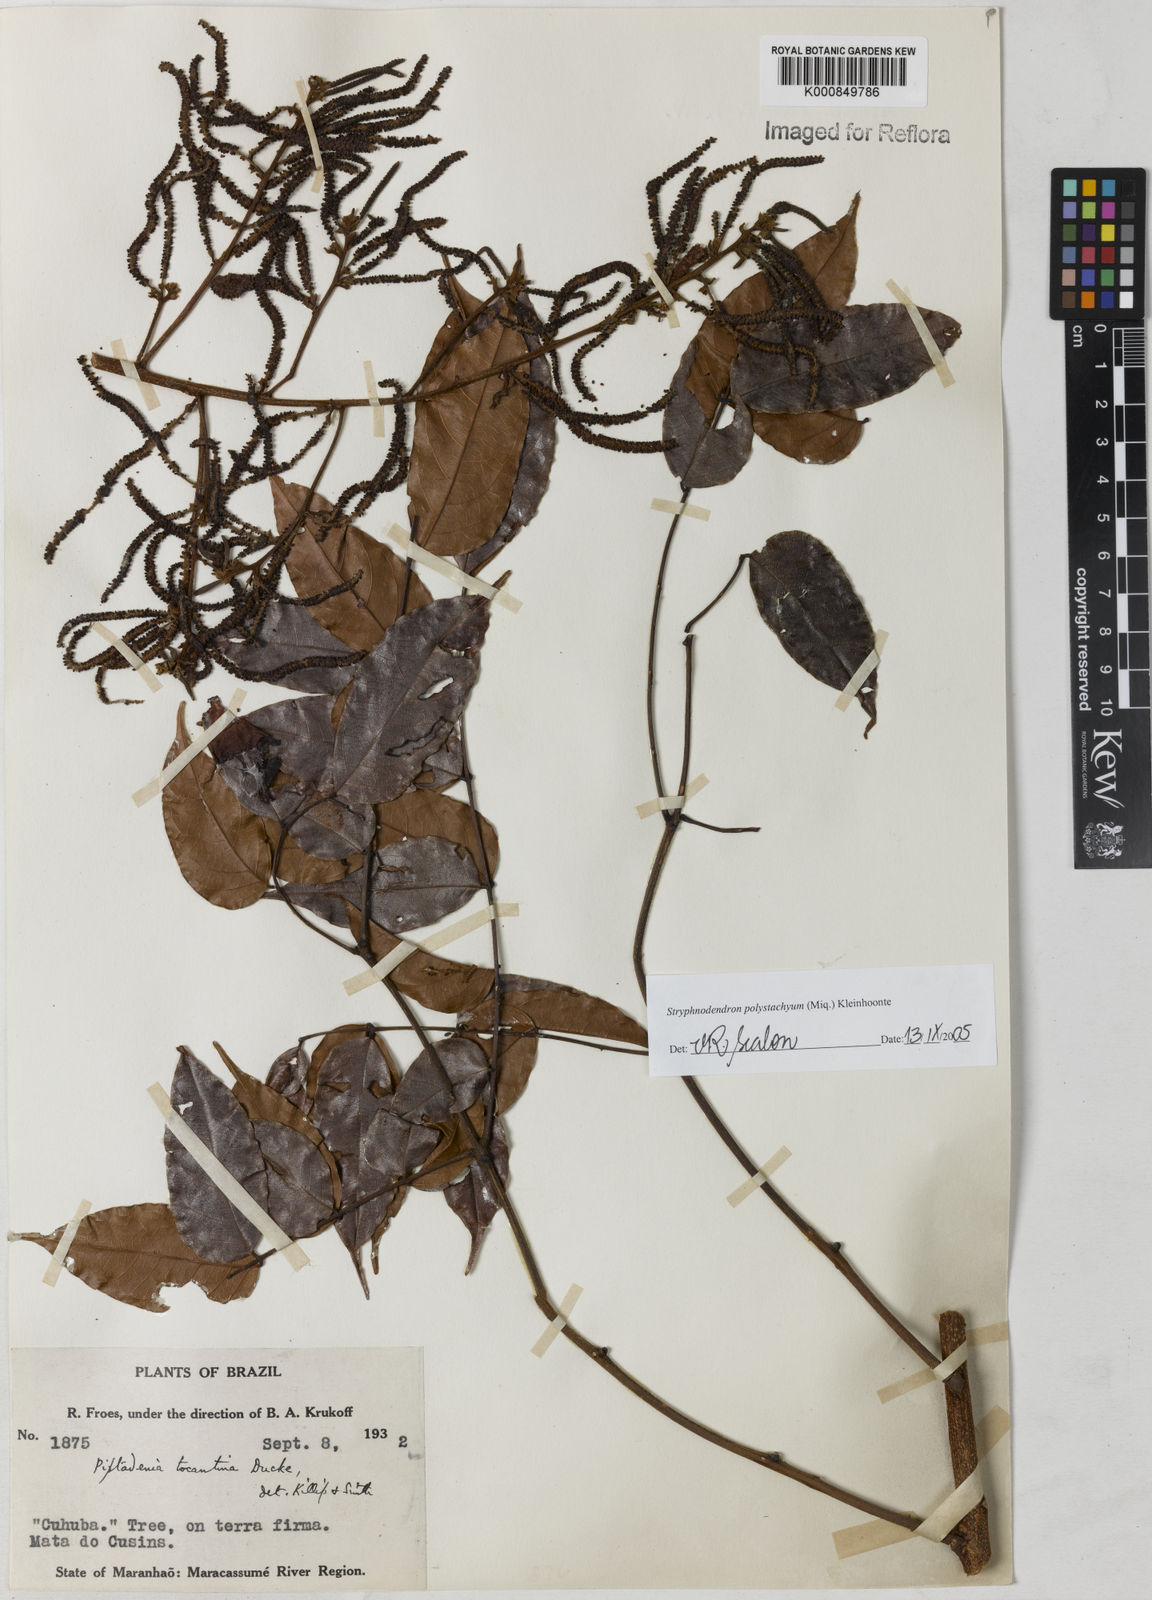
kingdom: Plantae
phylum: Tracheophyta
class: Magnoliopsida
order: Fabales
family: Fabaceae
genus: Stryphnodendron
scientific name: Stryphnodendron polystachyum
